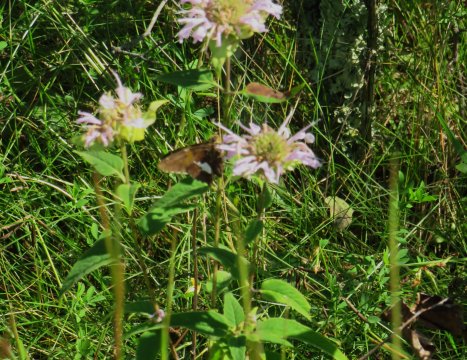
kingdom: Animalia
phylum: Arthropoda
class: Insecta
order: Lepidoptera
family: Hesperiidae
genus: Epargyreus
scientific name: Epargyreus clarus
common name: Silver-spotted Skipper
